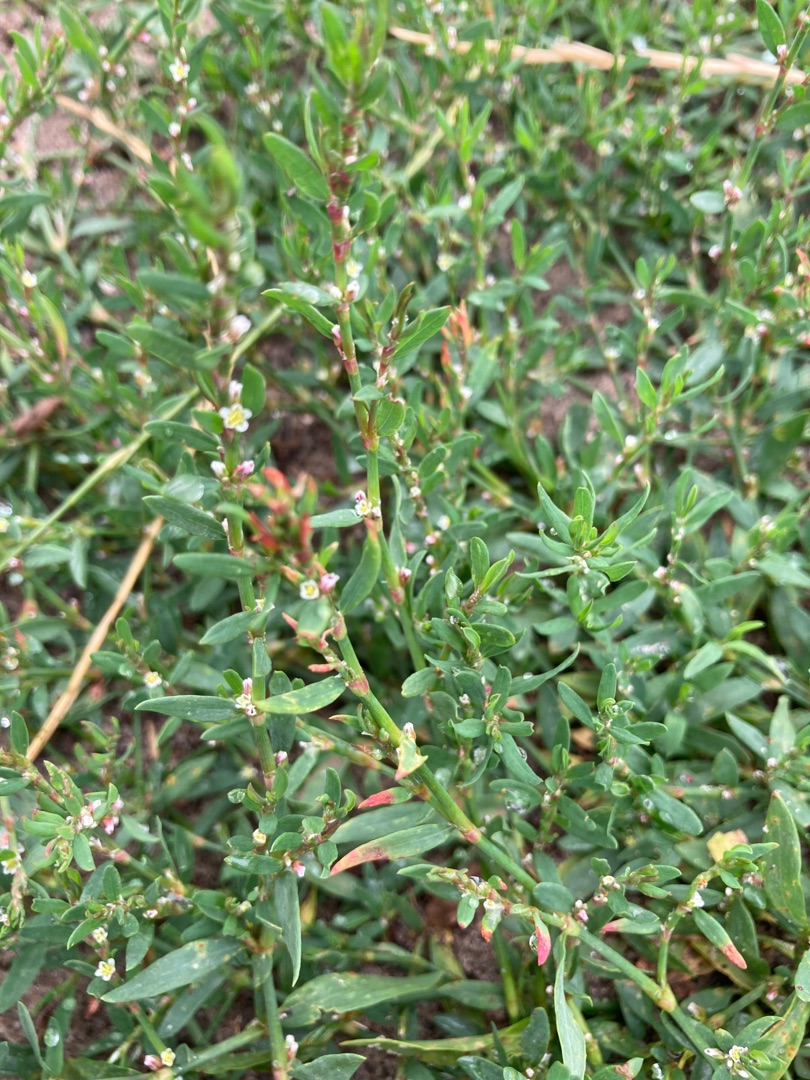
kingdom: Plantae
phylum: Tracheophyta
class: Magnoliopsida
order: Caryophyllales
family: Polygonaceae
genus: Polygonum
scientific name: Polygonum arenastrum
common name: Liggende vej-pileurt
